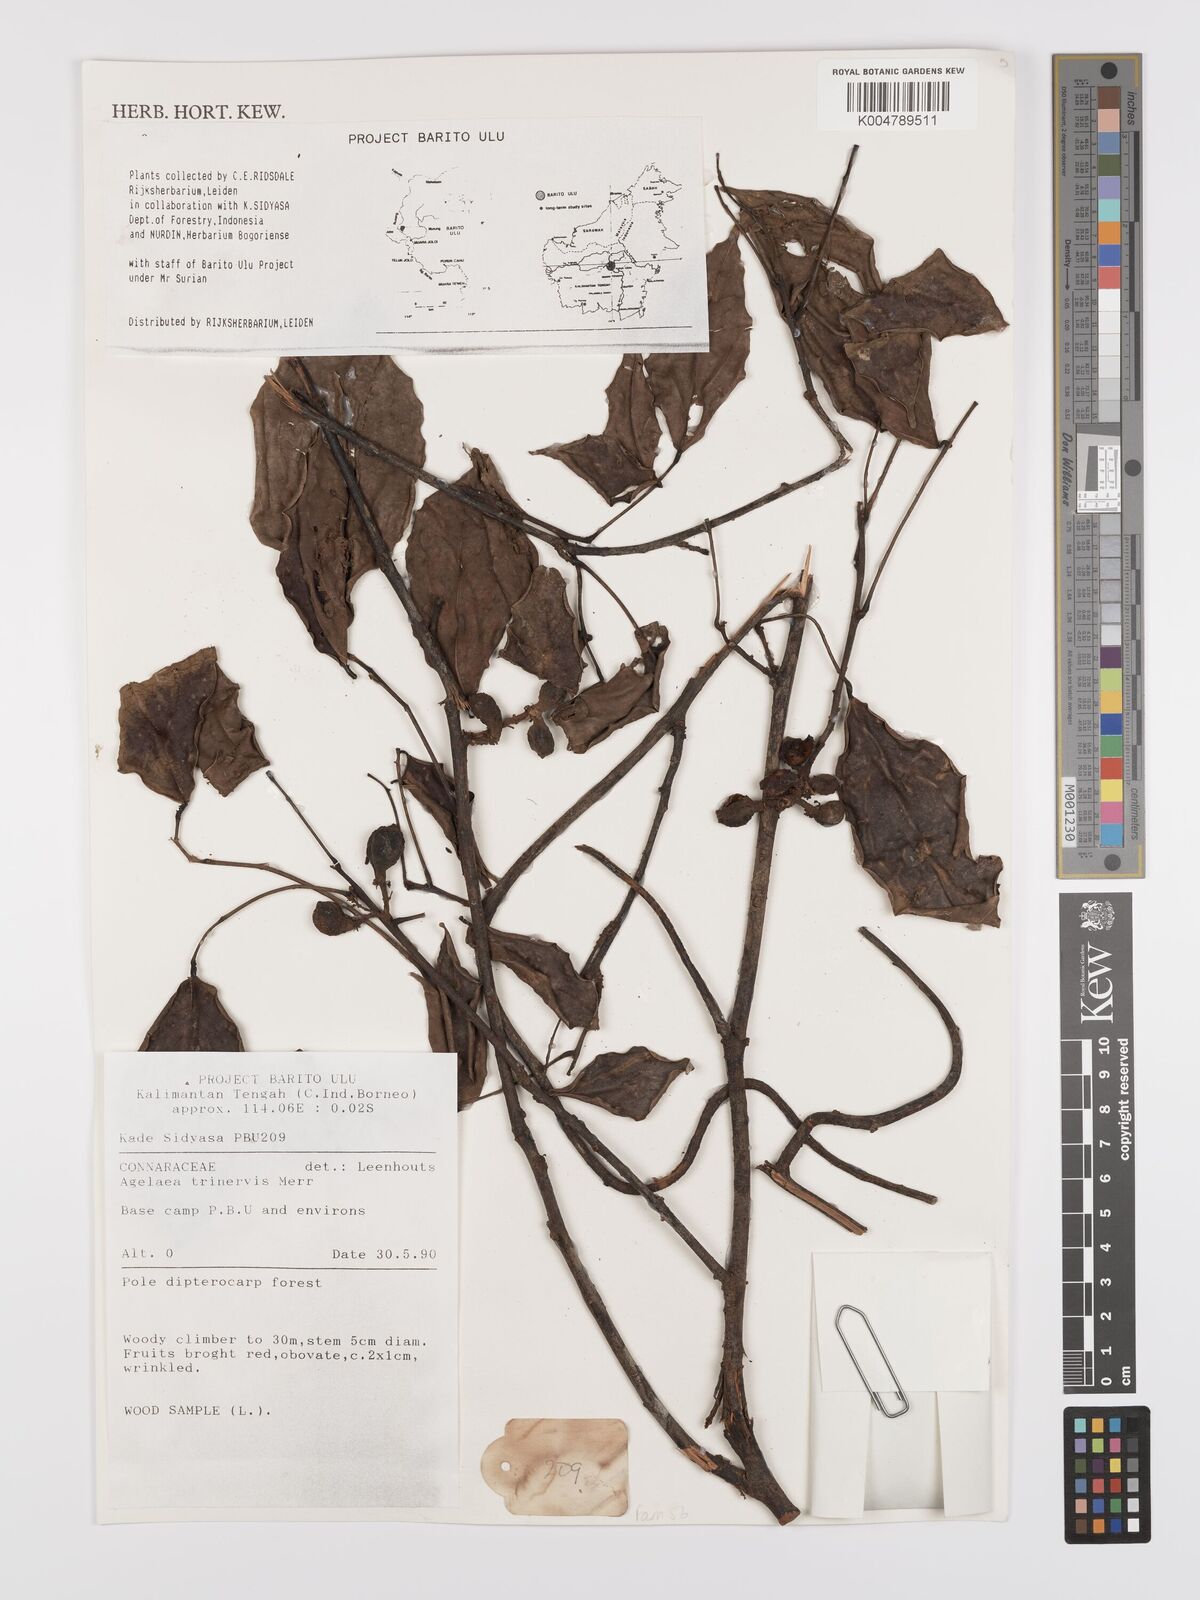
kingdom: Plantae
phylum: Tracheophyta
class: Magnoliopsida
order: Oxalidales
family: Connaraceae
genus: Agelaea
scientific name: Agelaea trinervis
